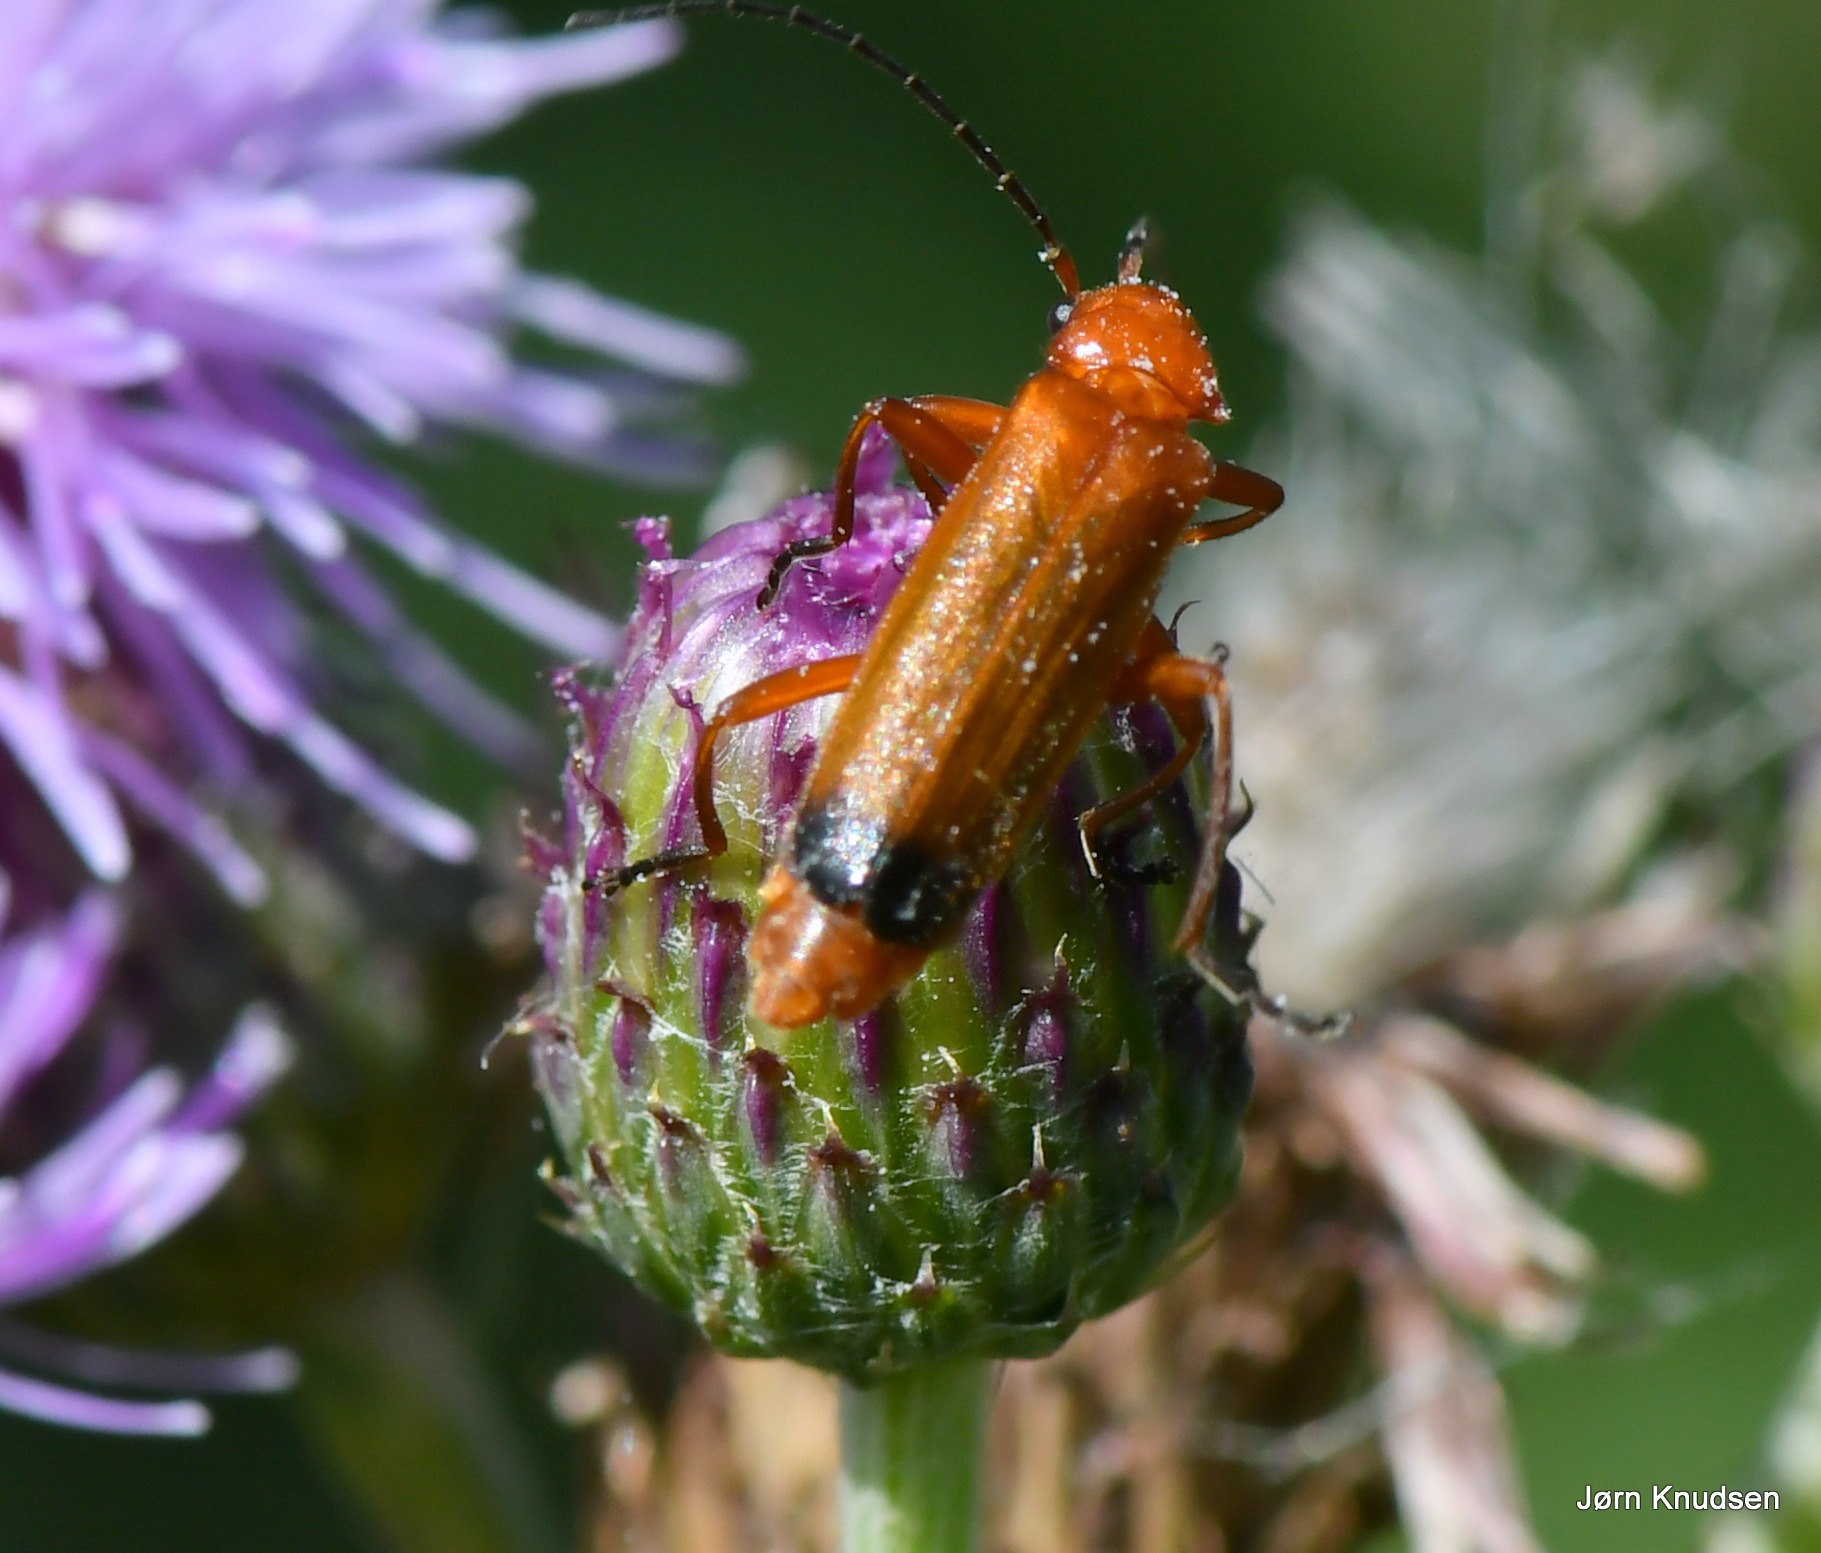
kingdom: Animalia
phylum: Arthropoda
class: Insecta
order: Coleoptera
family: Cantharidae
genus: Rhagonycha
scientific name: Rhagonycha fulva
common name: Præstebille
